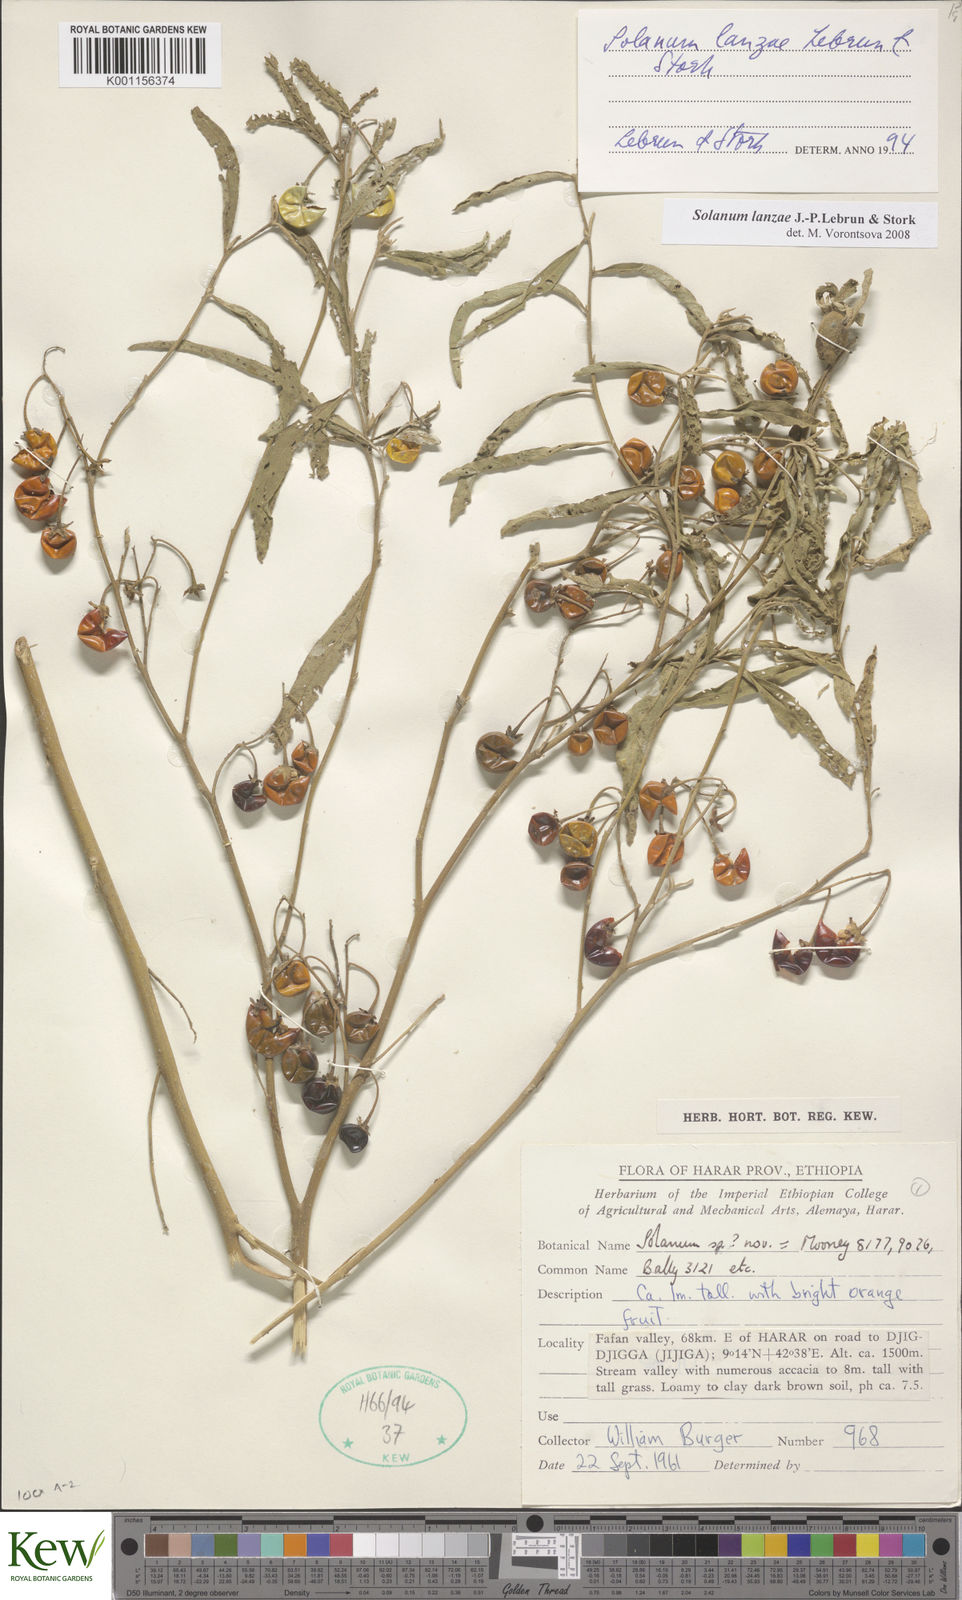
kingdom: Plantae
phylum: Tracheophyta
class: Magnoliopsida
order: Solanales
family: Solanaceae
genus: Solanum
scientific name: Solanum lanzae
